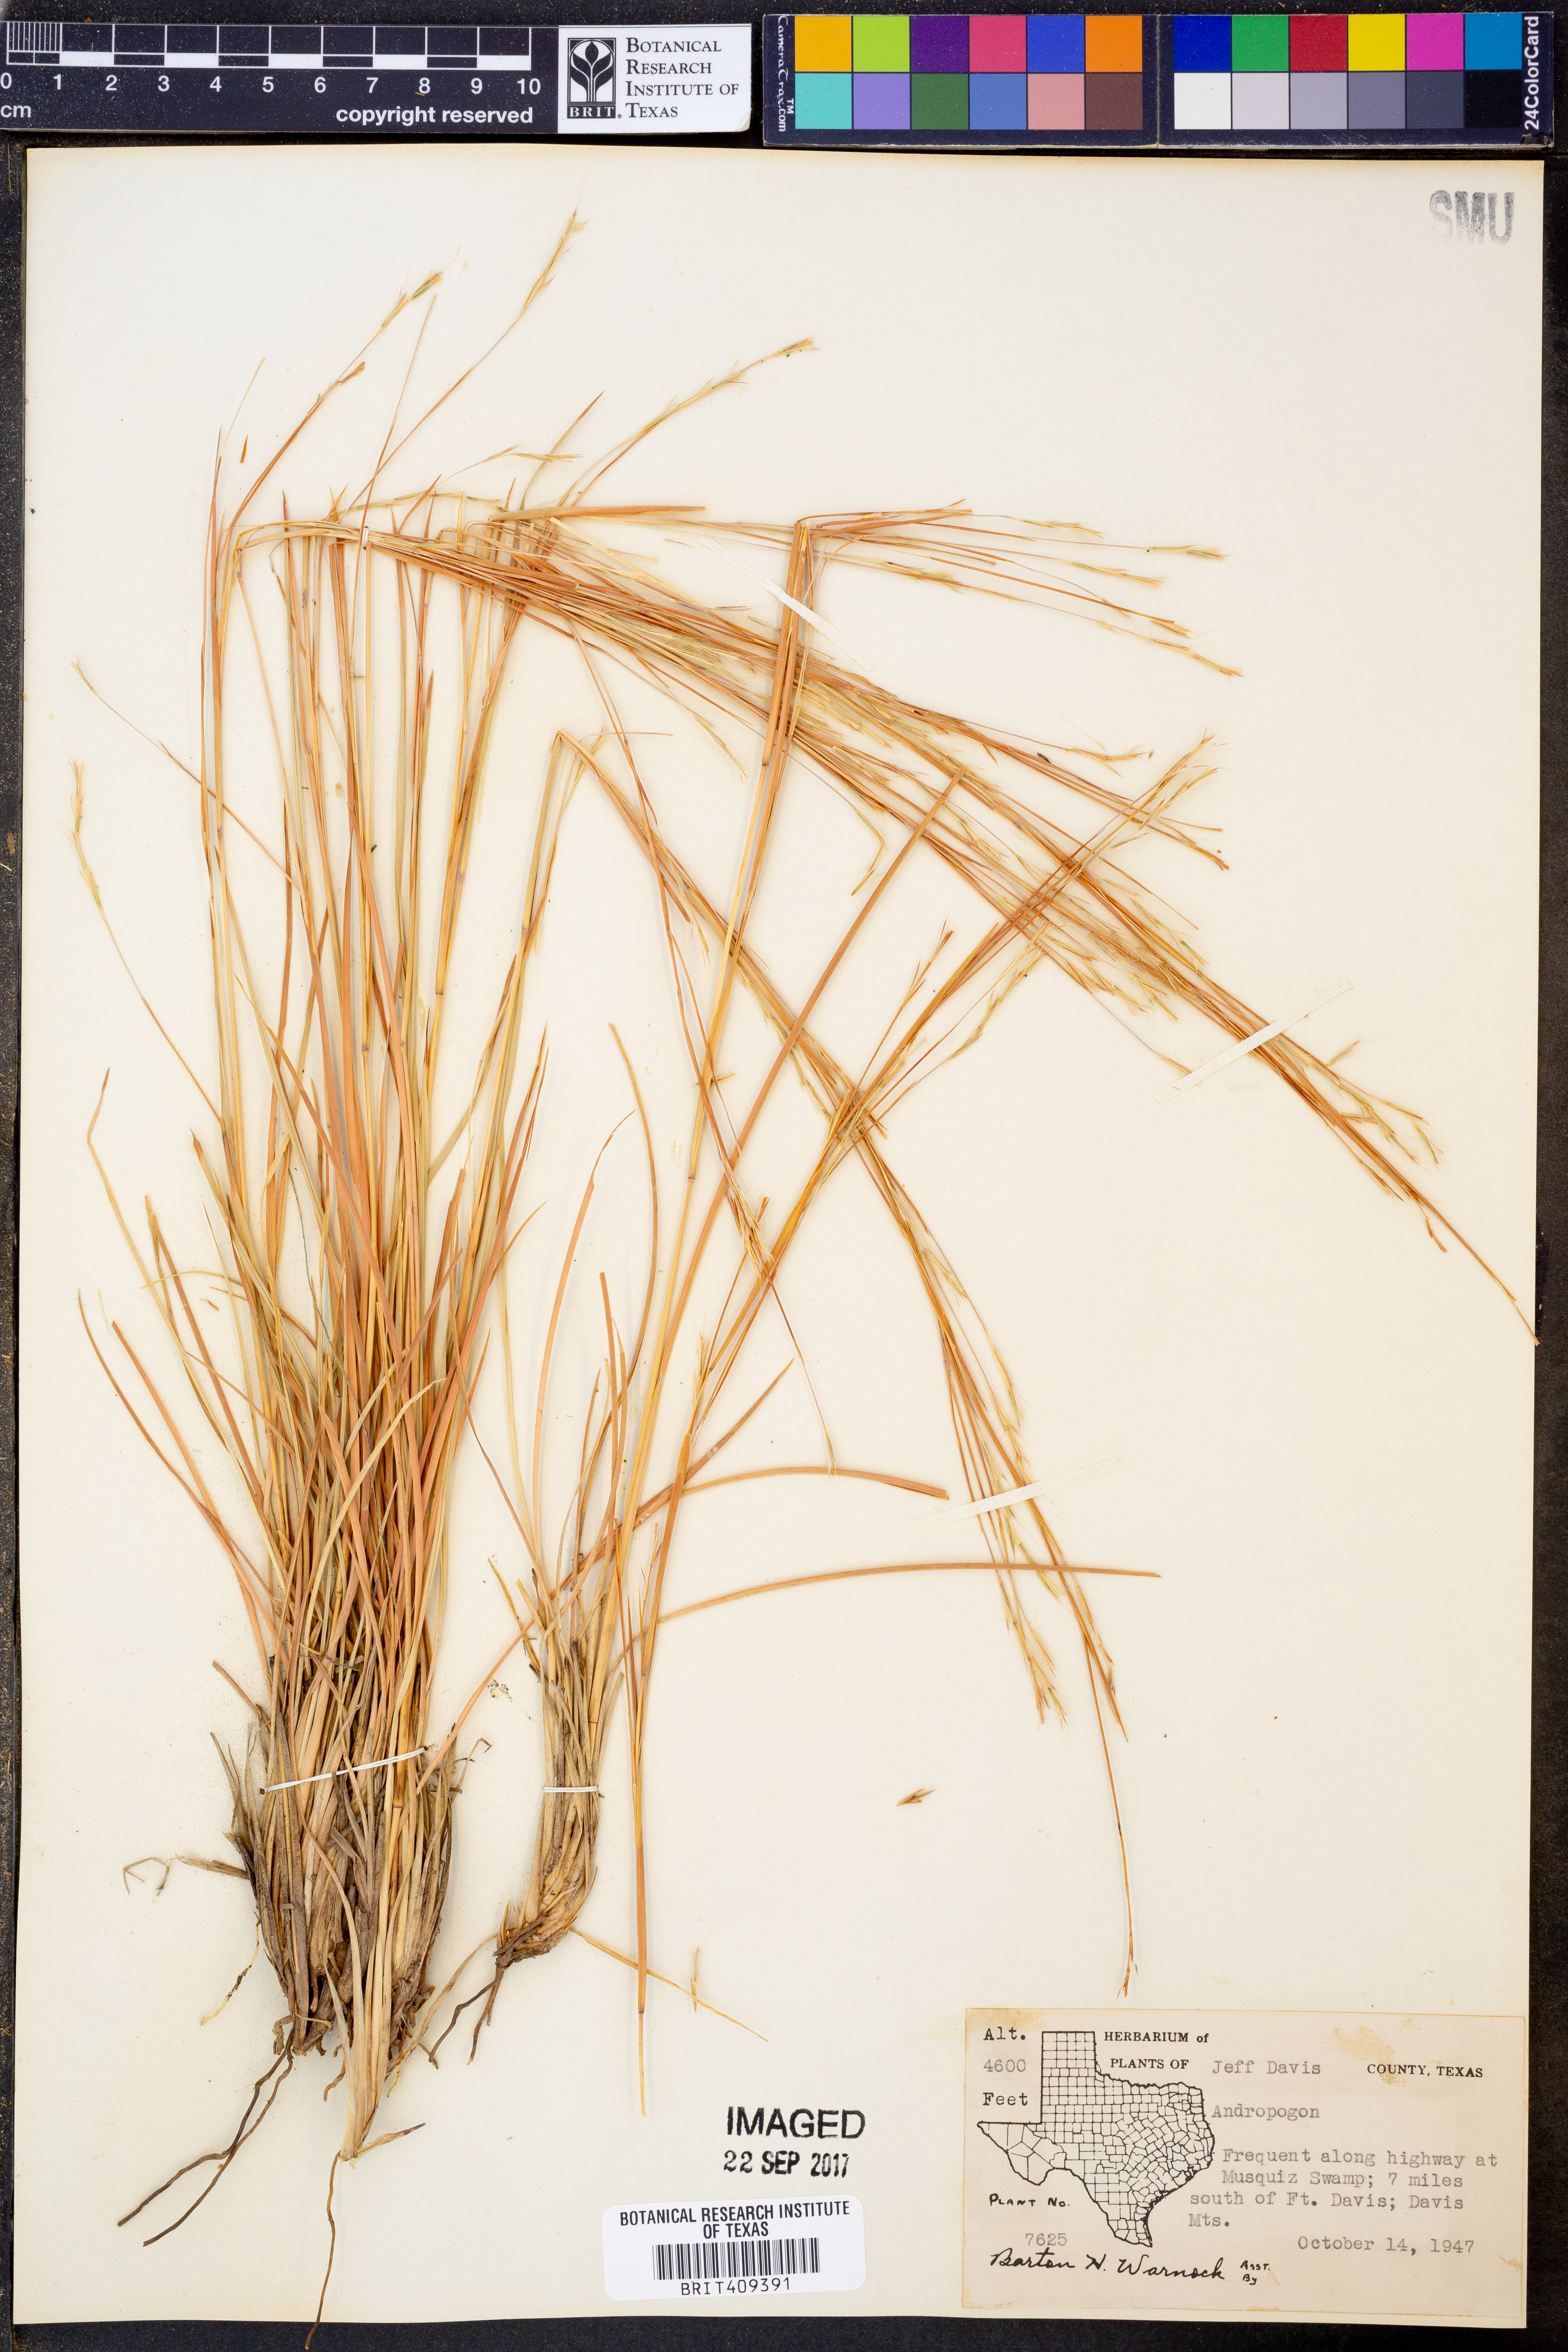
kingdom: Plantae
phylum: Tracheophyta
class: Liliopsida
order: Poales
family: Poaceae
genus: Andropogon
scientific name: Andropogon
